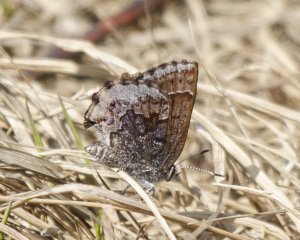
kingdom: Animalia
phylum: Arthropoda
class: Insecta
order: Lepidoptera
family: Lycaenidae
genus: Callophrys
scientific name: Callophrys polios
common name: Hoary Elfin
